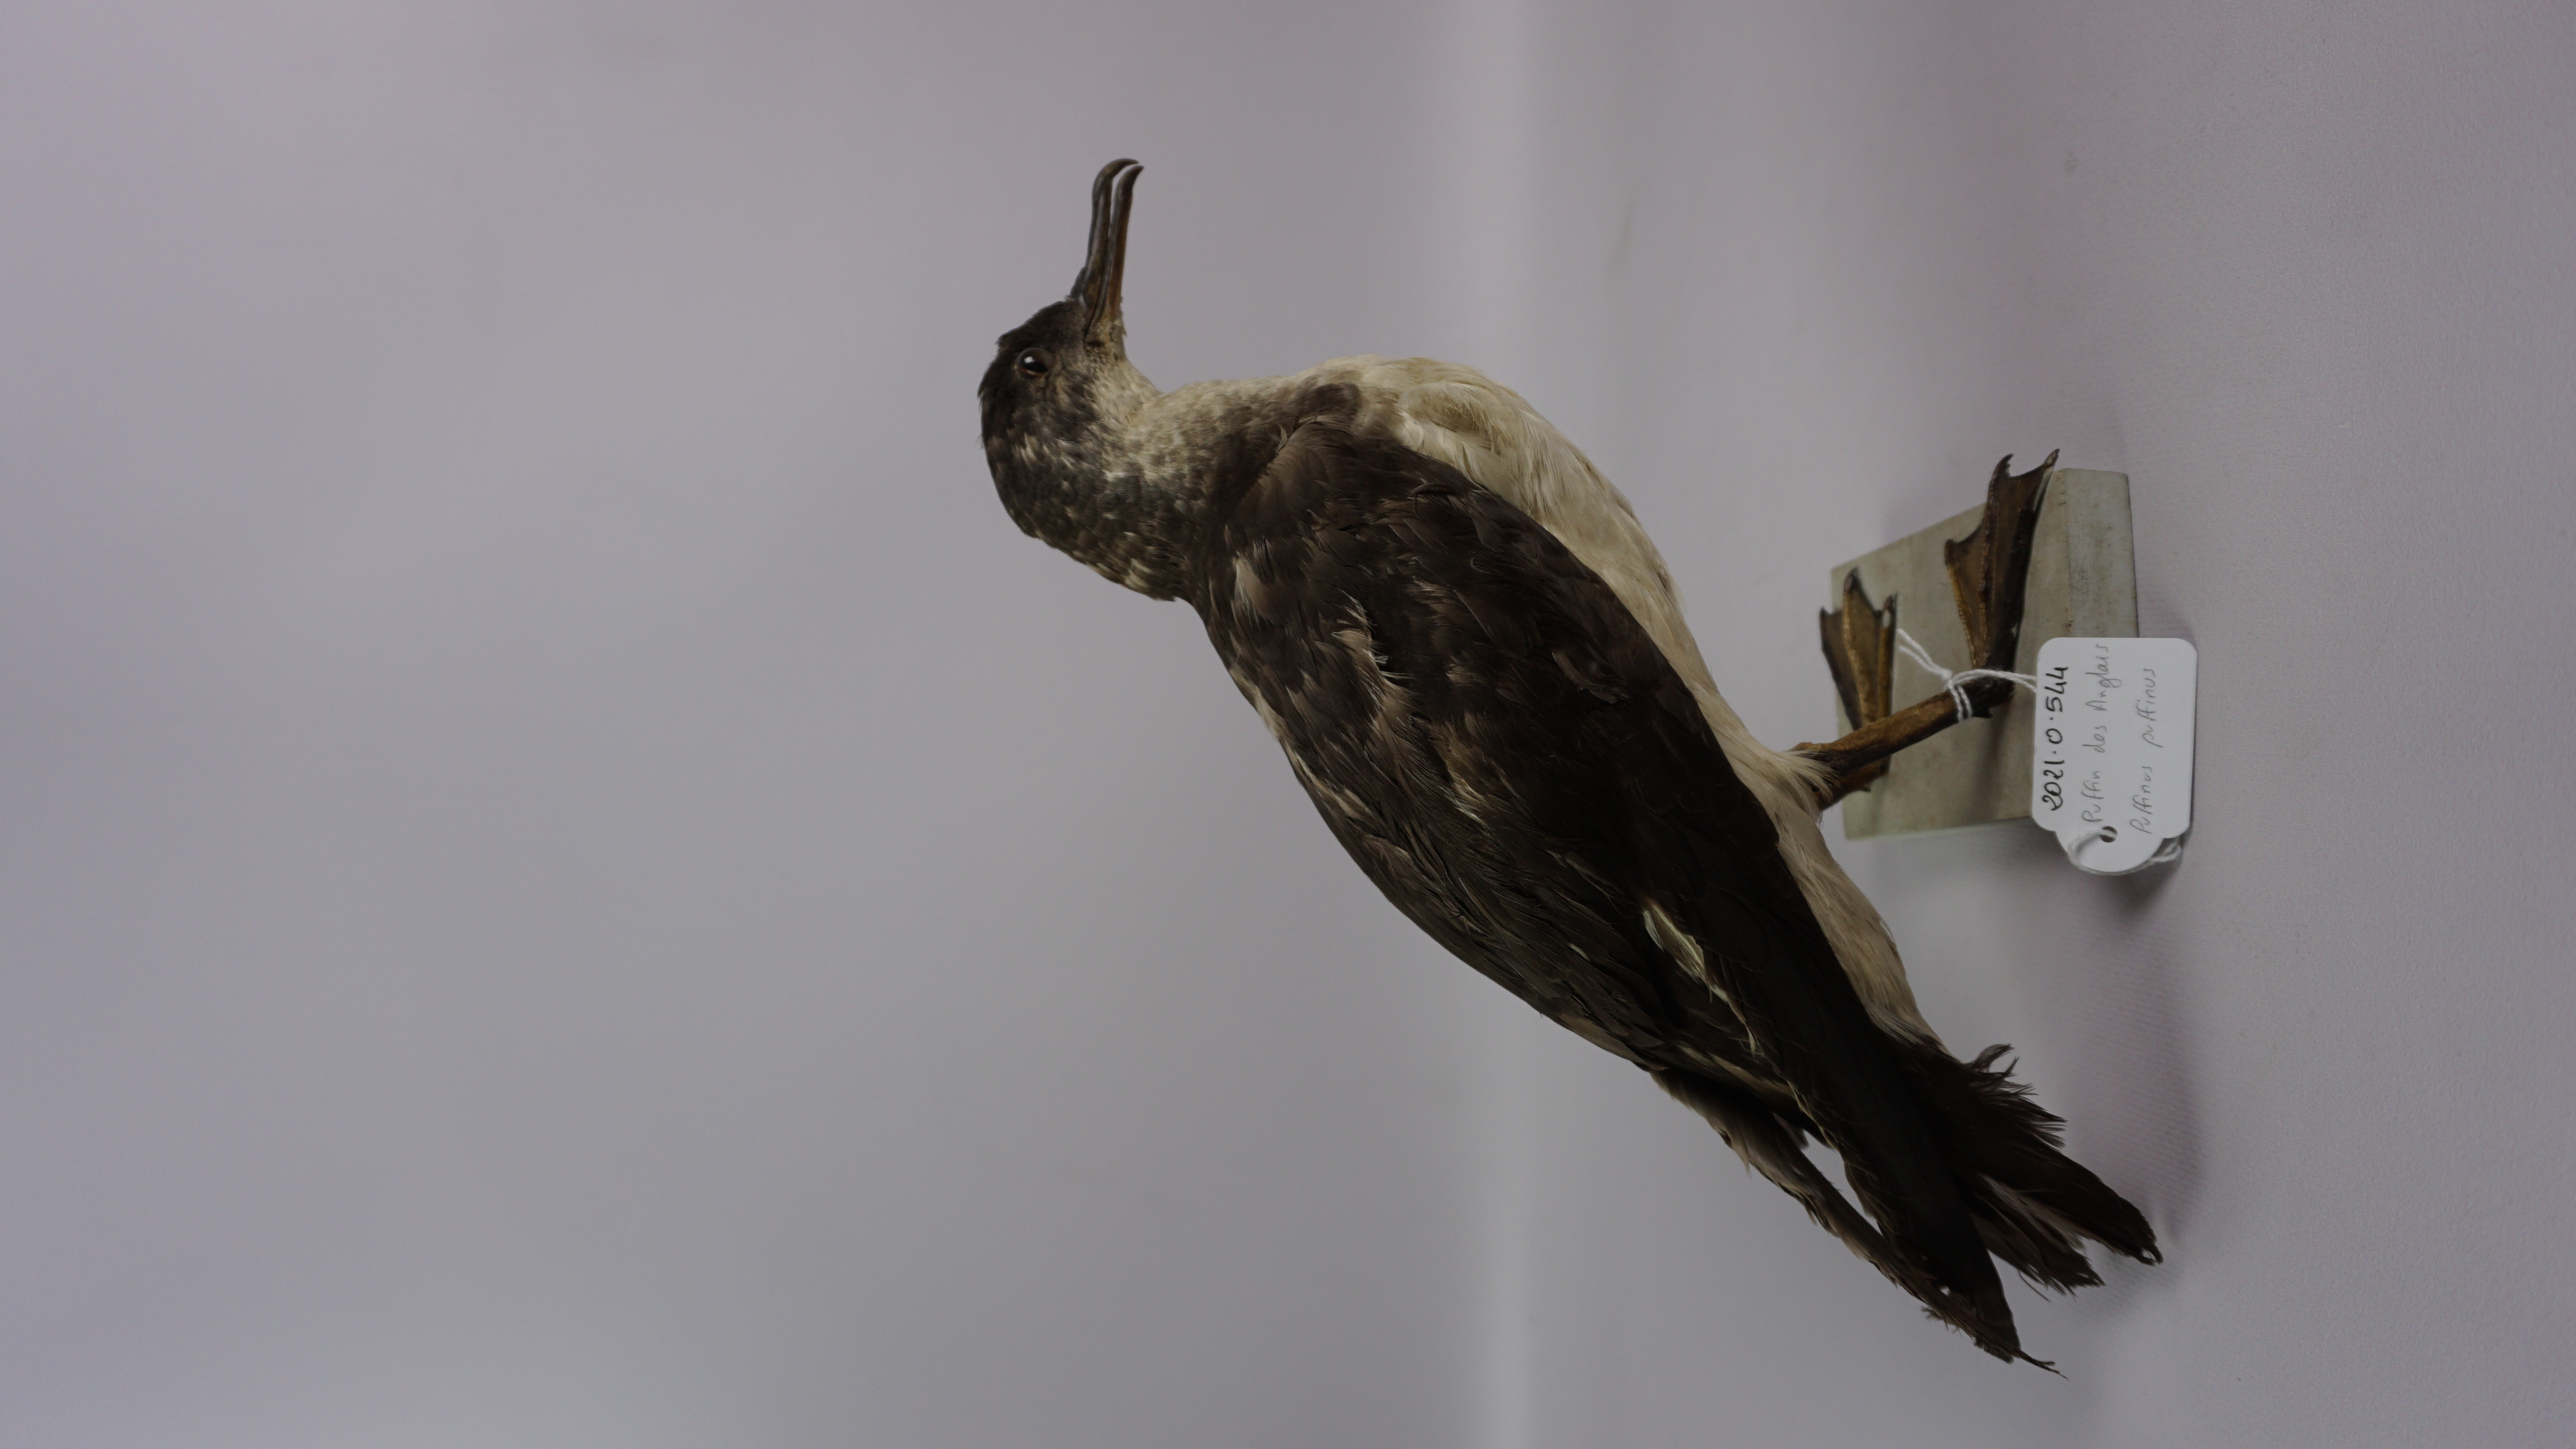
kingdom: Animalia
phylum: Chordata
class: Aves
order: Procellariiformes
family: Procellariidae
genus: Puffinus
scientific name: Puffinus puffinus
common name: Manx shearwater
